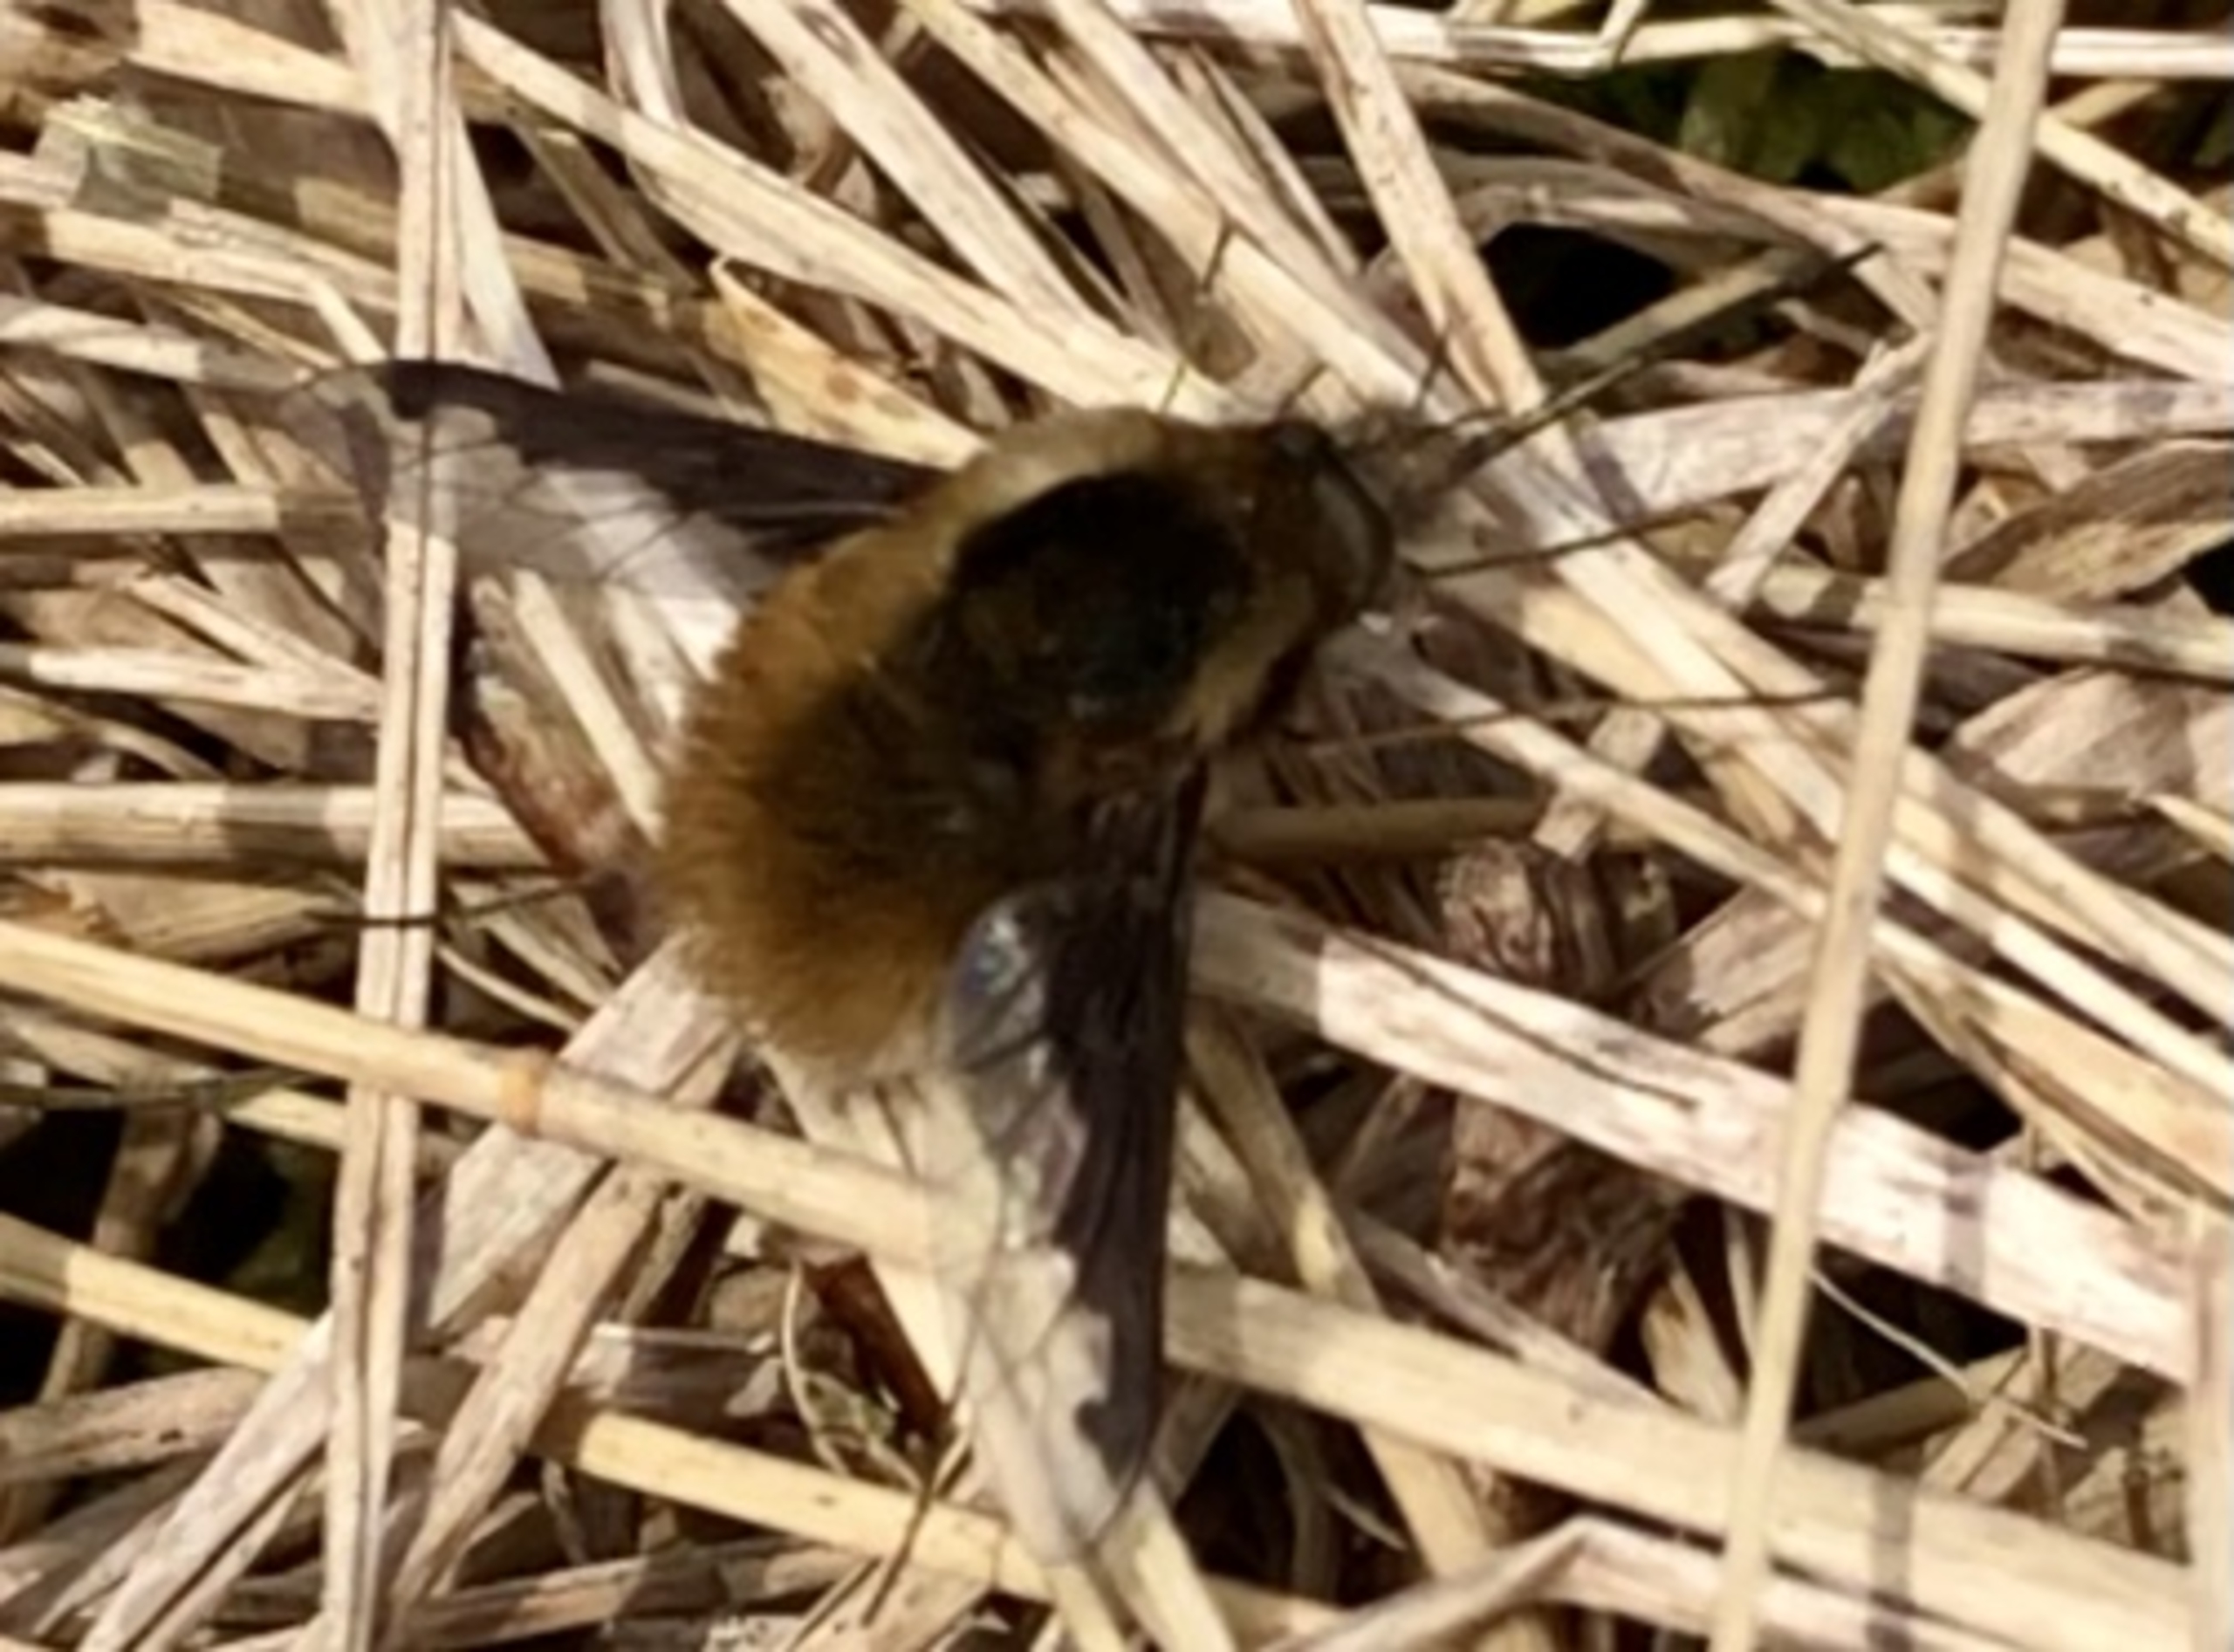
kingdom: Animalia
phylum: Arthropoda
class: Insecta
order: Diptera
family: Bombyliidae
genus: Bombylius
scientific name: Bombylius major
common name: Stor humleflue
